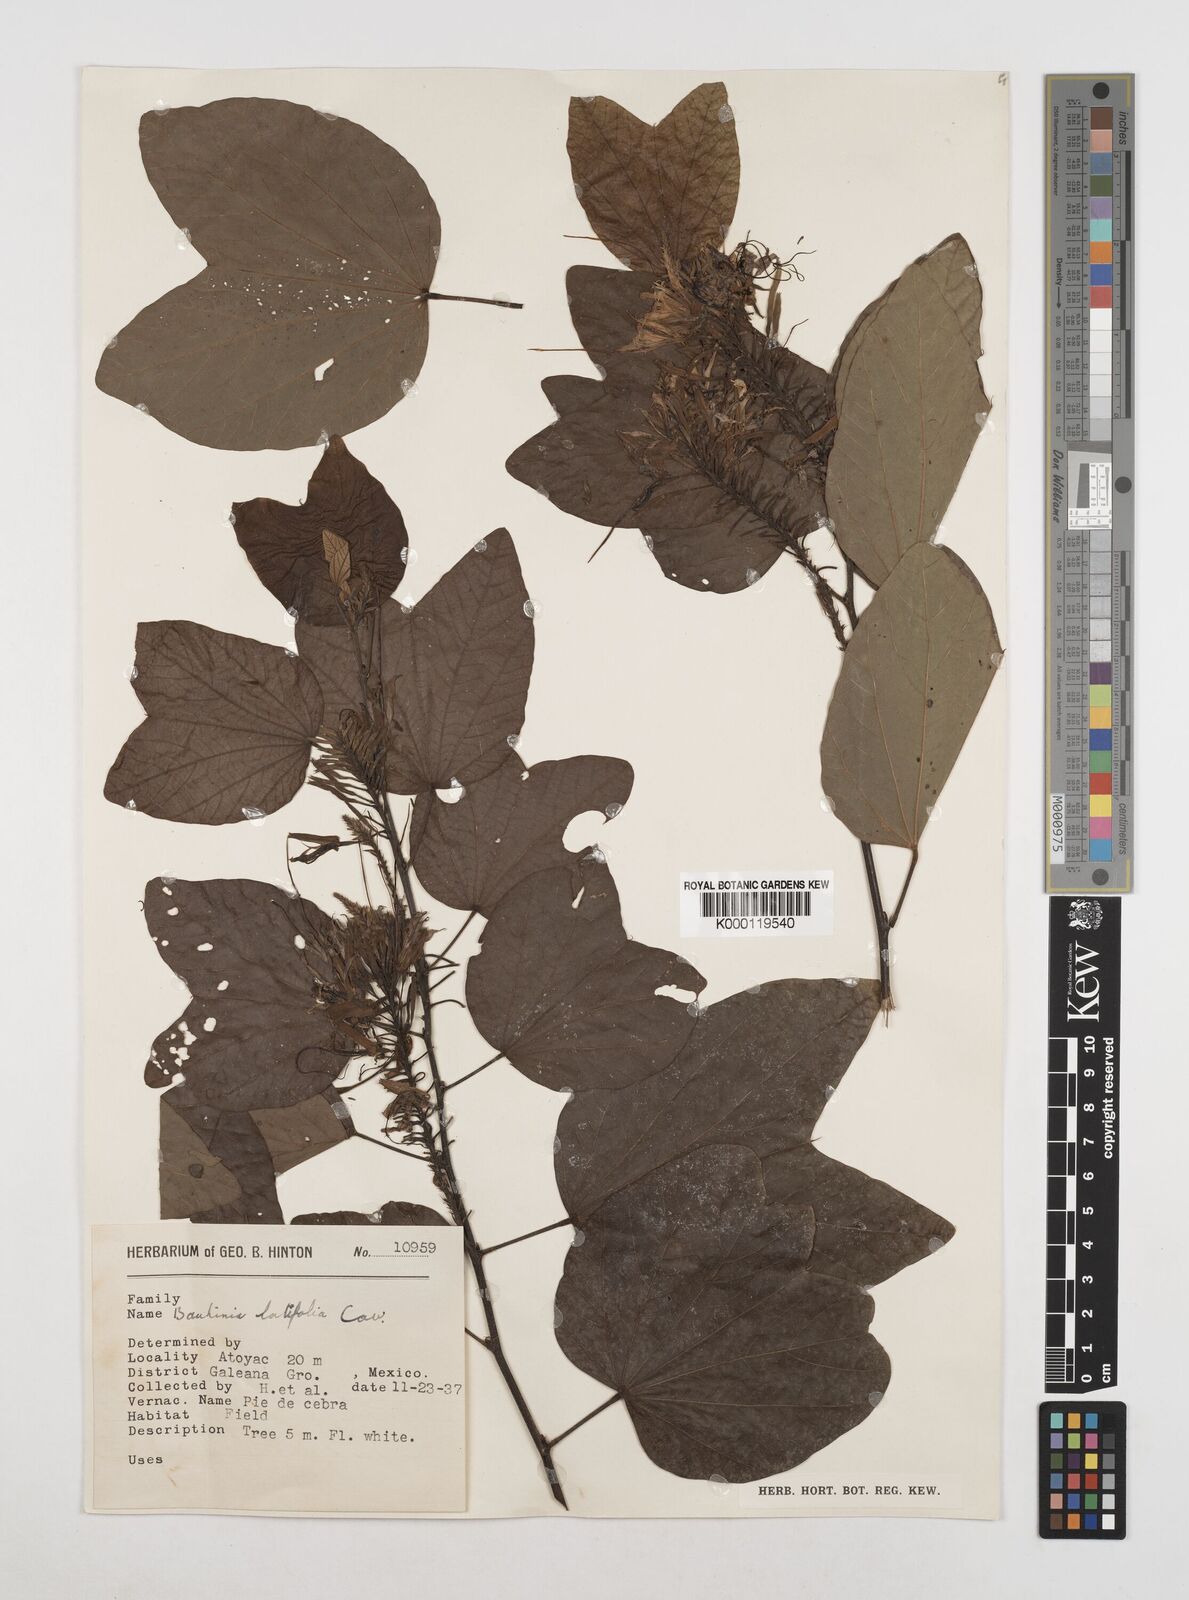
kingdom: Plantae
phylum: Tracheophyta
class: Magnoliopsida
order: Fabales
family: Fabaceae
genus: Bauhinia
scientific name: Bauhinia divaricata
